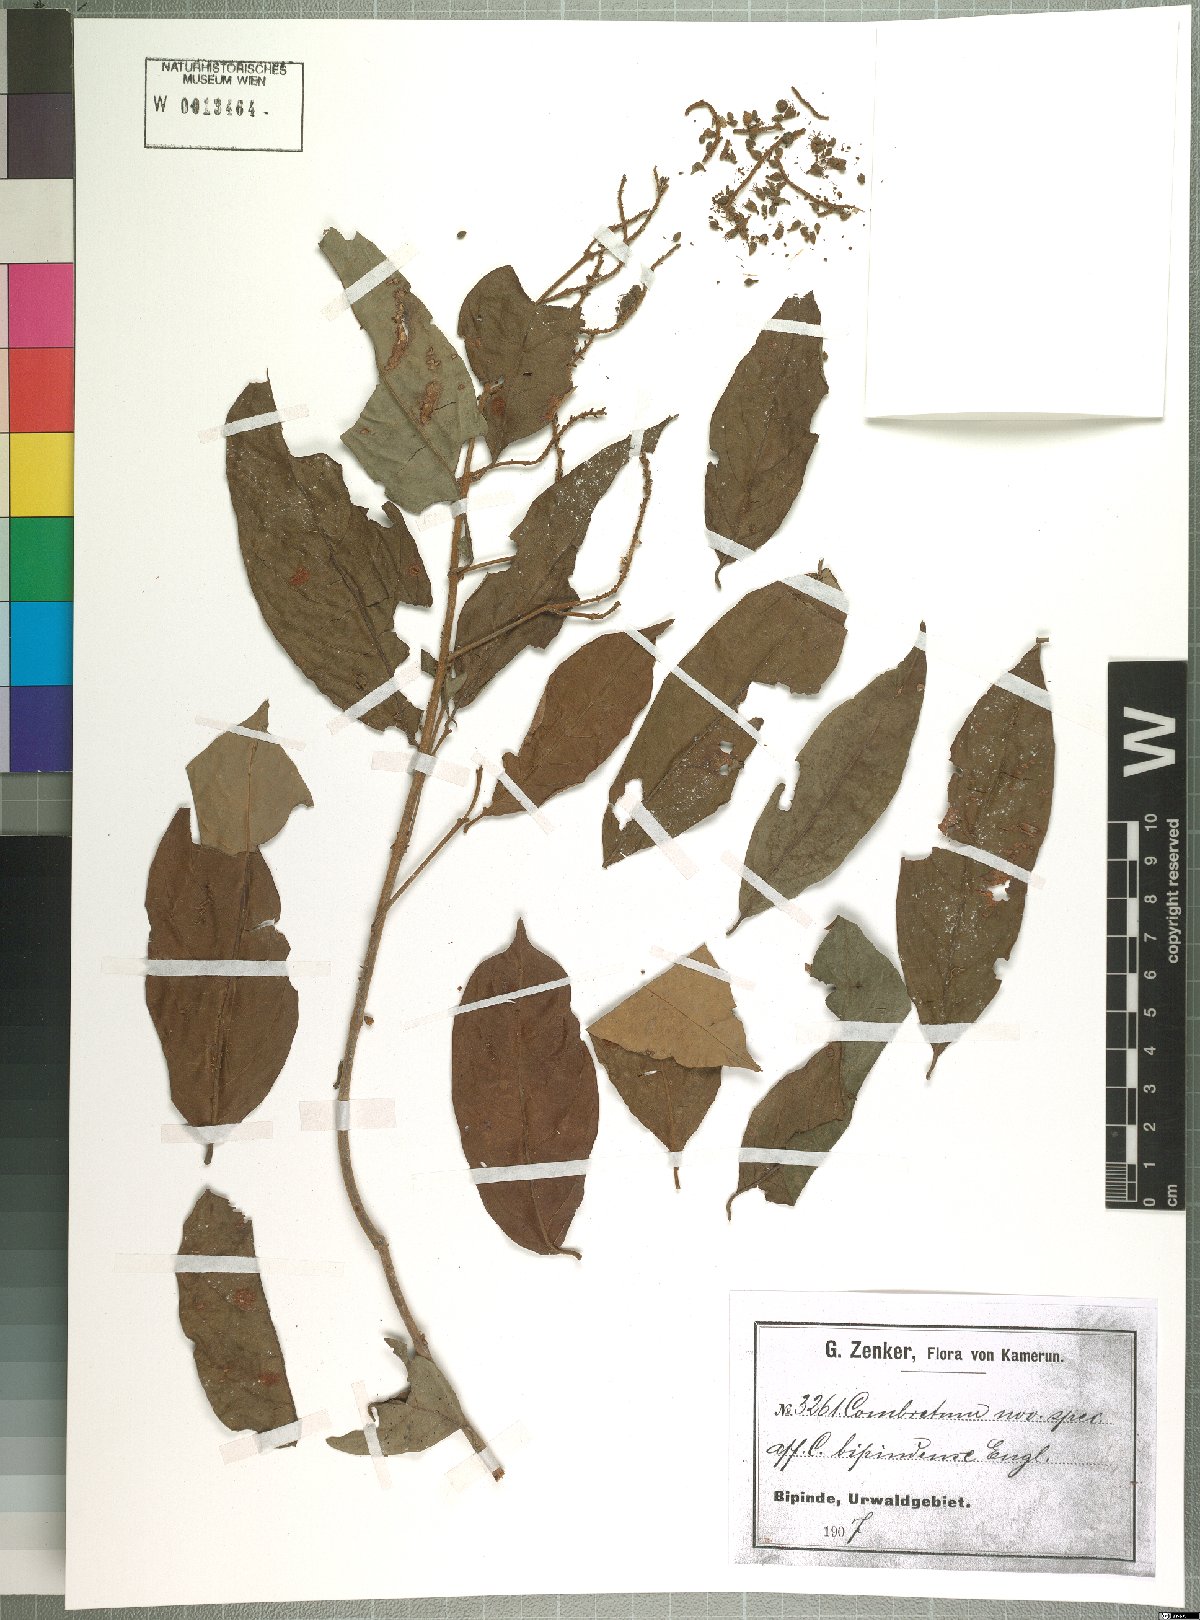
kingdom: Plantae
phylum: Tracheophyta
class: Magnoliopsida
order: Myrtales
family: Combretaceae
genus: Combretum
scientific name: Combretum sordidum
